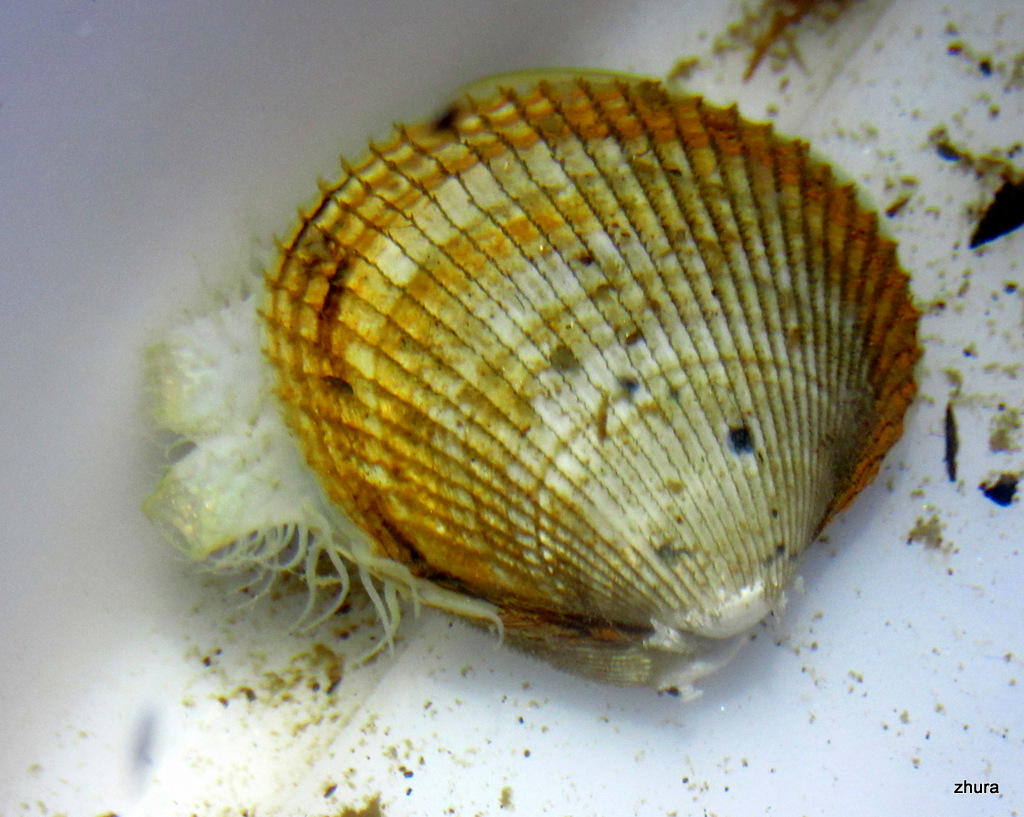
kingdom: Animalia
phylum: Mollusca
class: Bivalvia
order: Cardiida
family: Cardiidae
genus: Ciliatocardium
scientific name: Ciliatocardium ciliatum
